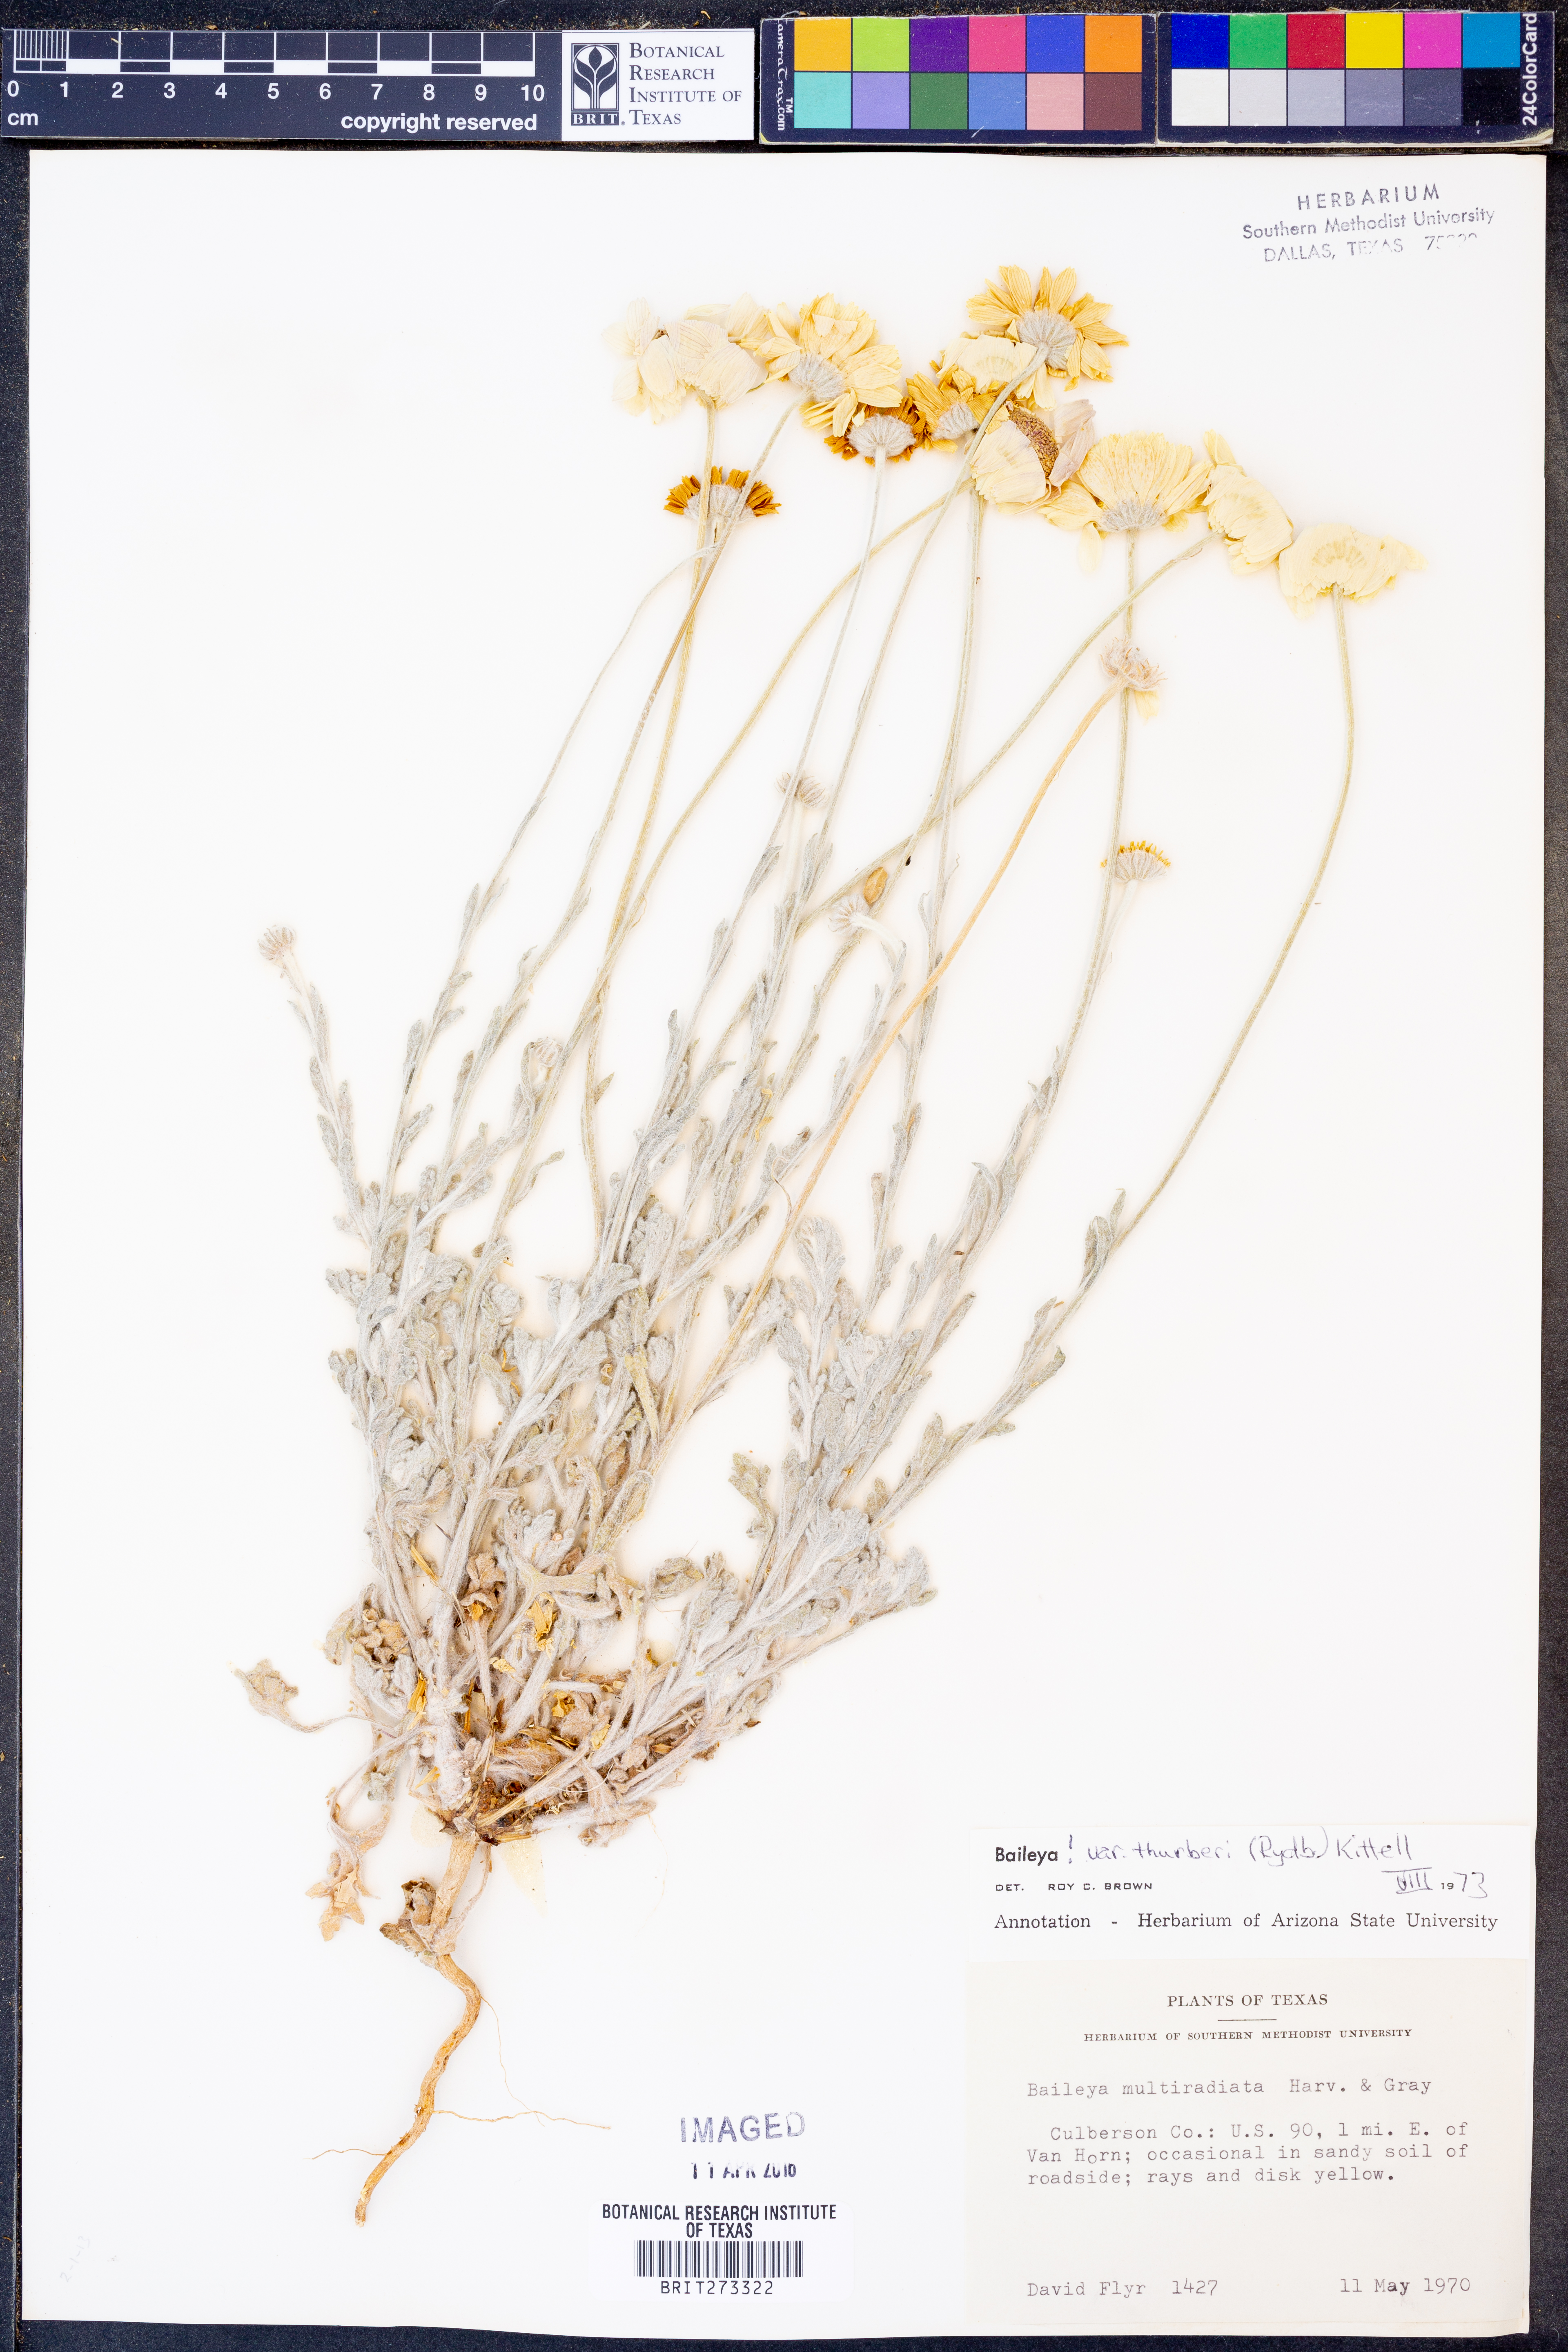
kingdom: Plantae
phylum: Tracheophyta
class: Magnoliopsida
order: Asterales
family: Asteraceae
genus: Baileya
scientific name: Baileya multiradiata
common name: Desert-marigold
